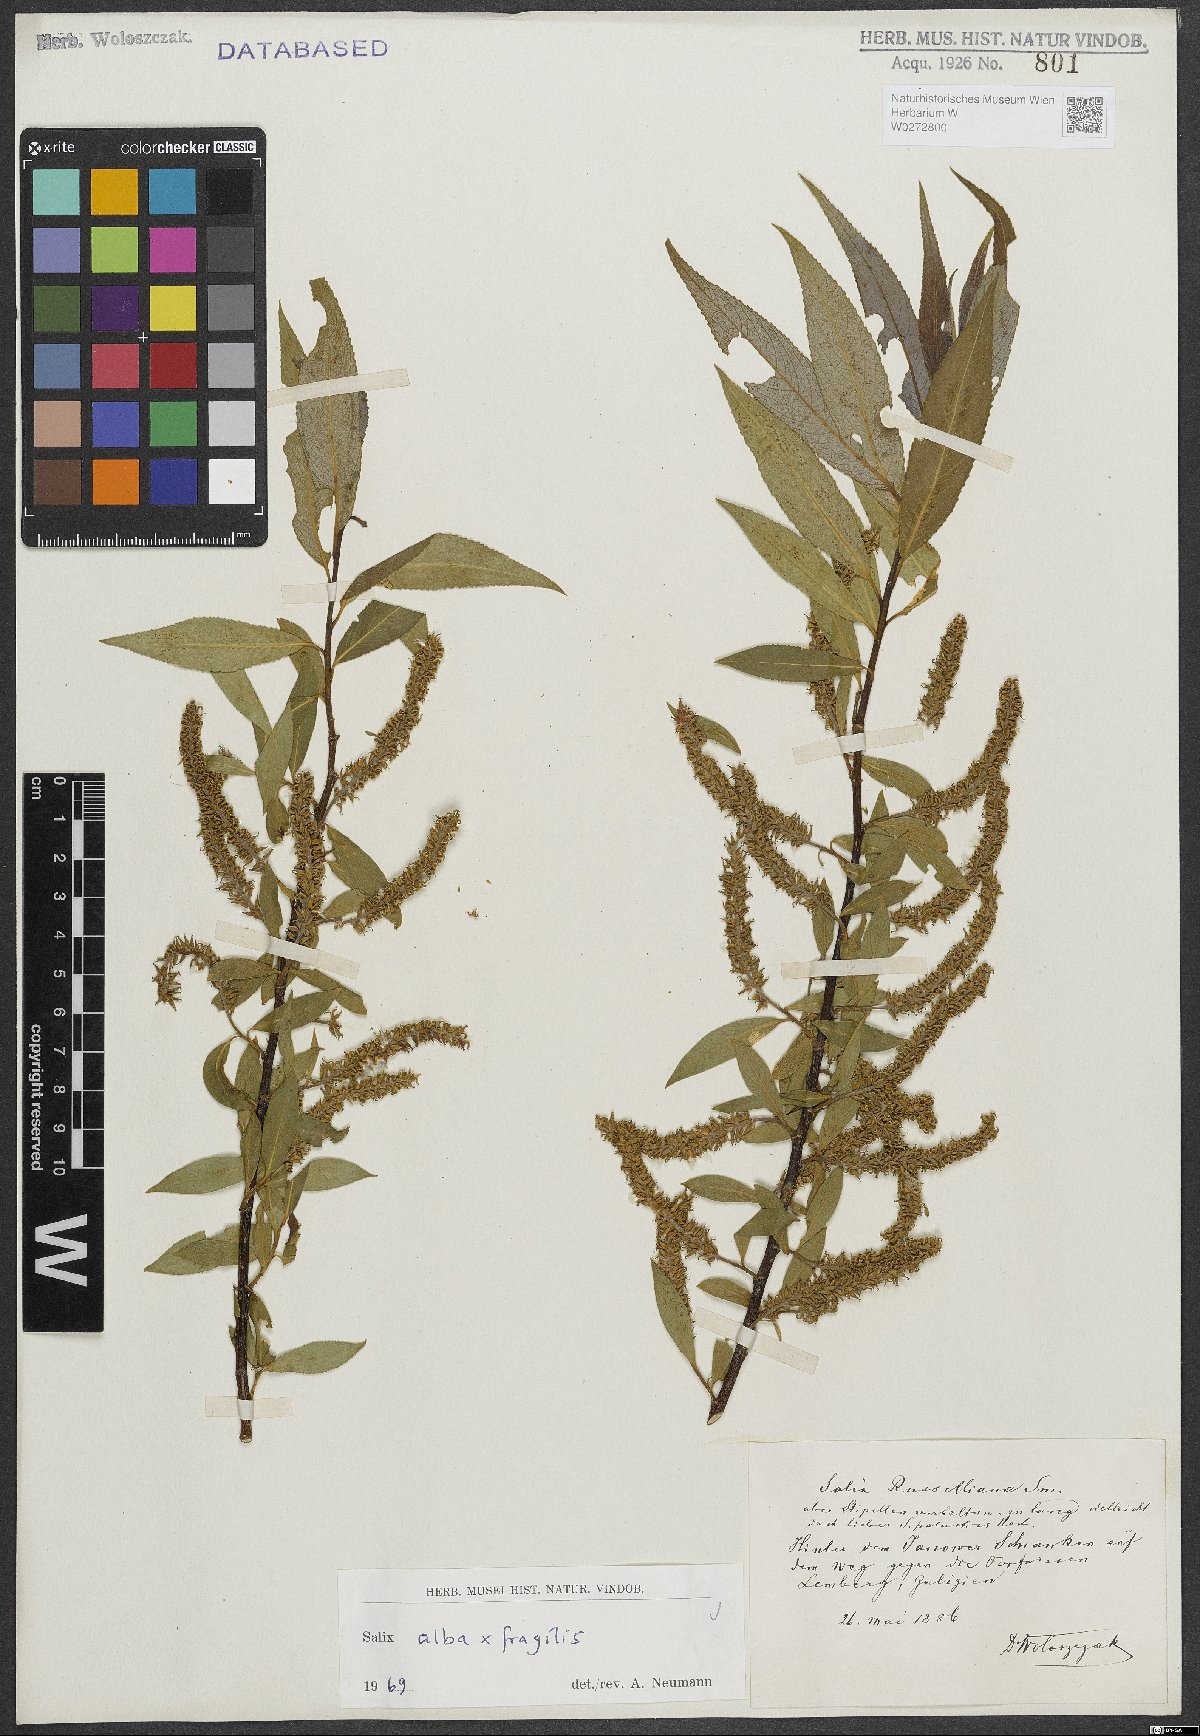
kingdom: Plantae
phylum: Tracheophyta
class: Magnoliopsida
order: Malpighiales
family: Salicaceae
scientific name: Salicaceae
